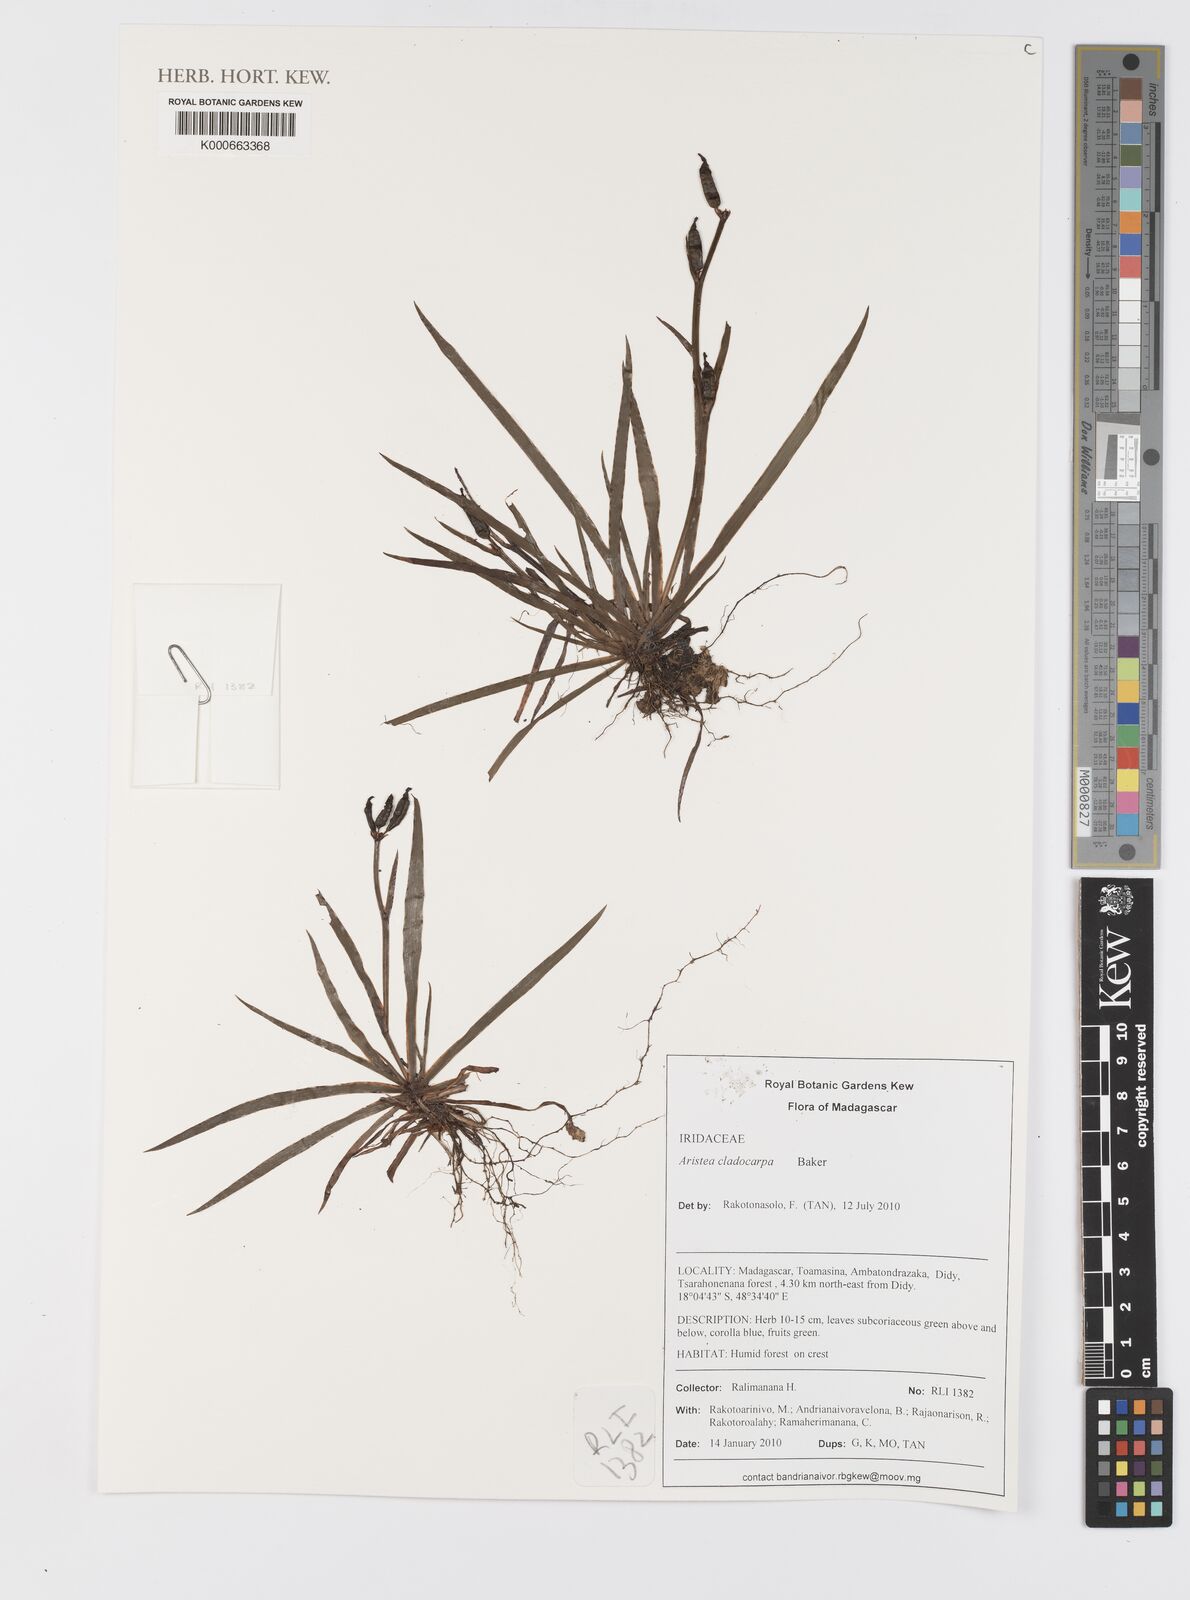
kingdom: Plantae
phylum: Tracheophyta
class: Liliopsida
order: Asparagales
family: Iridaceae
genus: Aristea
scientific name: Aristea cladocarpa
